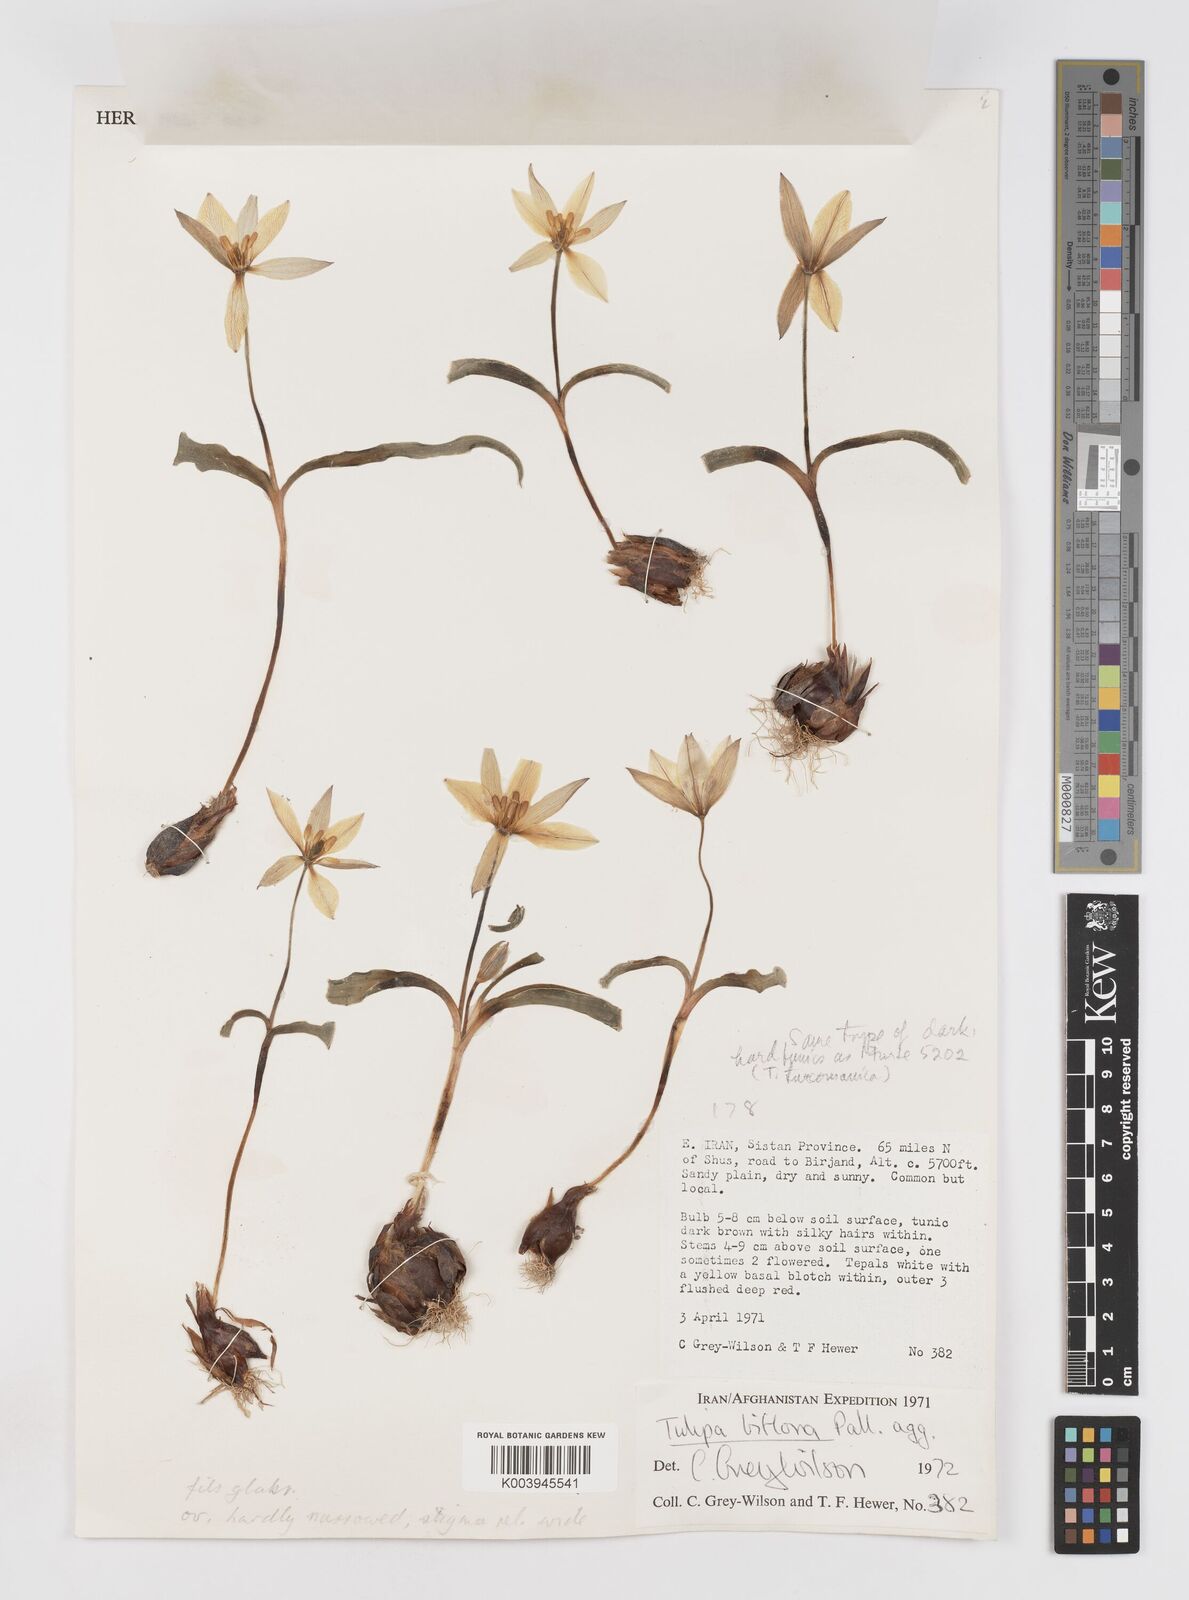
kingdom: Plantae
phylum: Tracheophyta
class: Liliopsida
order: Liliales
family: Liliaceae
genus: Tulipa
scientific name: Tulipa biflora
